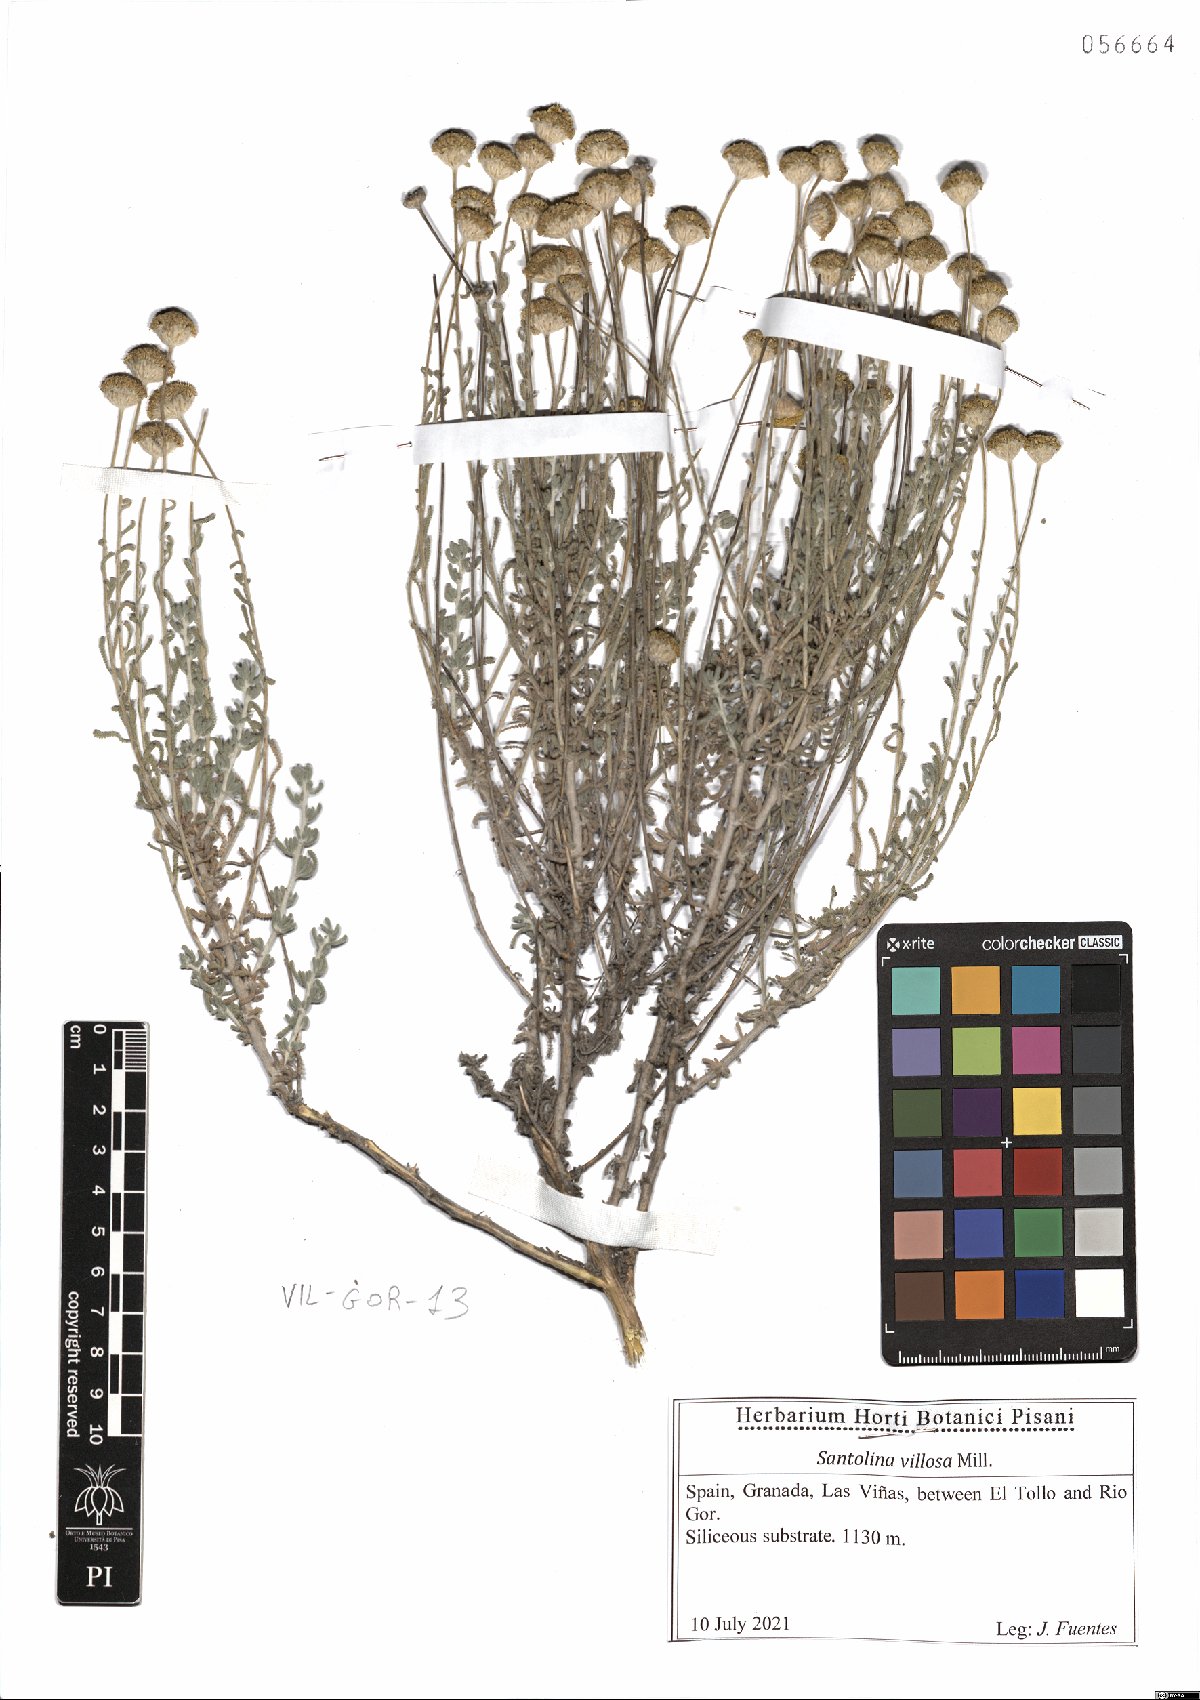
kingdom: Plantae
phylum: Tracheophyta
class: Magnoliopsida
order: Asterales
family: Asteraceae
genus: Santolina
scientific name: Santolina chamaecyparissus
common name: Lavender-cotton
